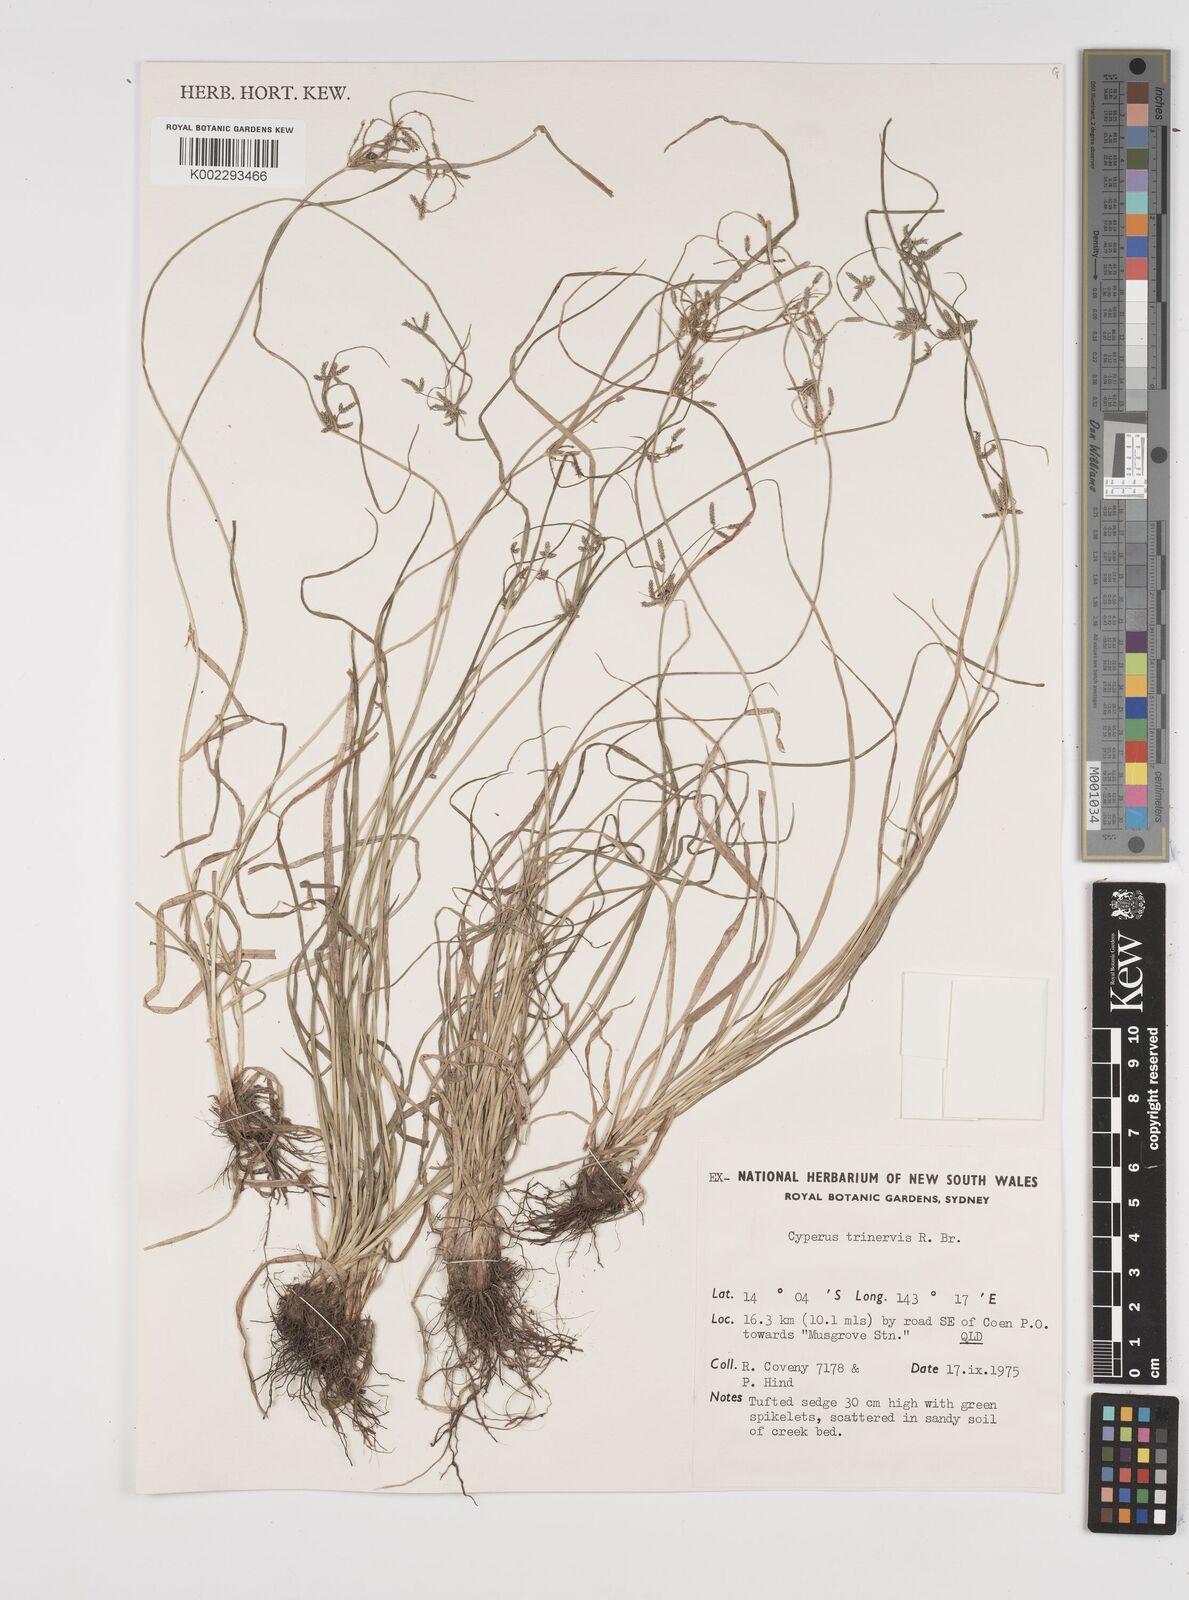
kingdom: Plantae
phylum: Tracheophyta
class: Liliopsida
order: Poales
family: Cyperaceae
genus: Cyperus
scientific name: Cyperus trinervis
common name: Australian flatsedge
